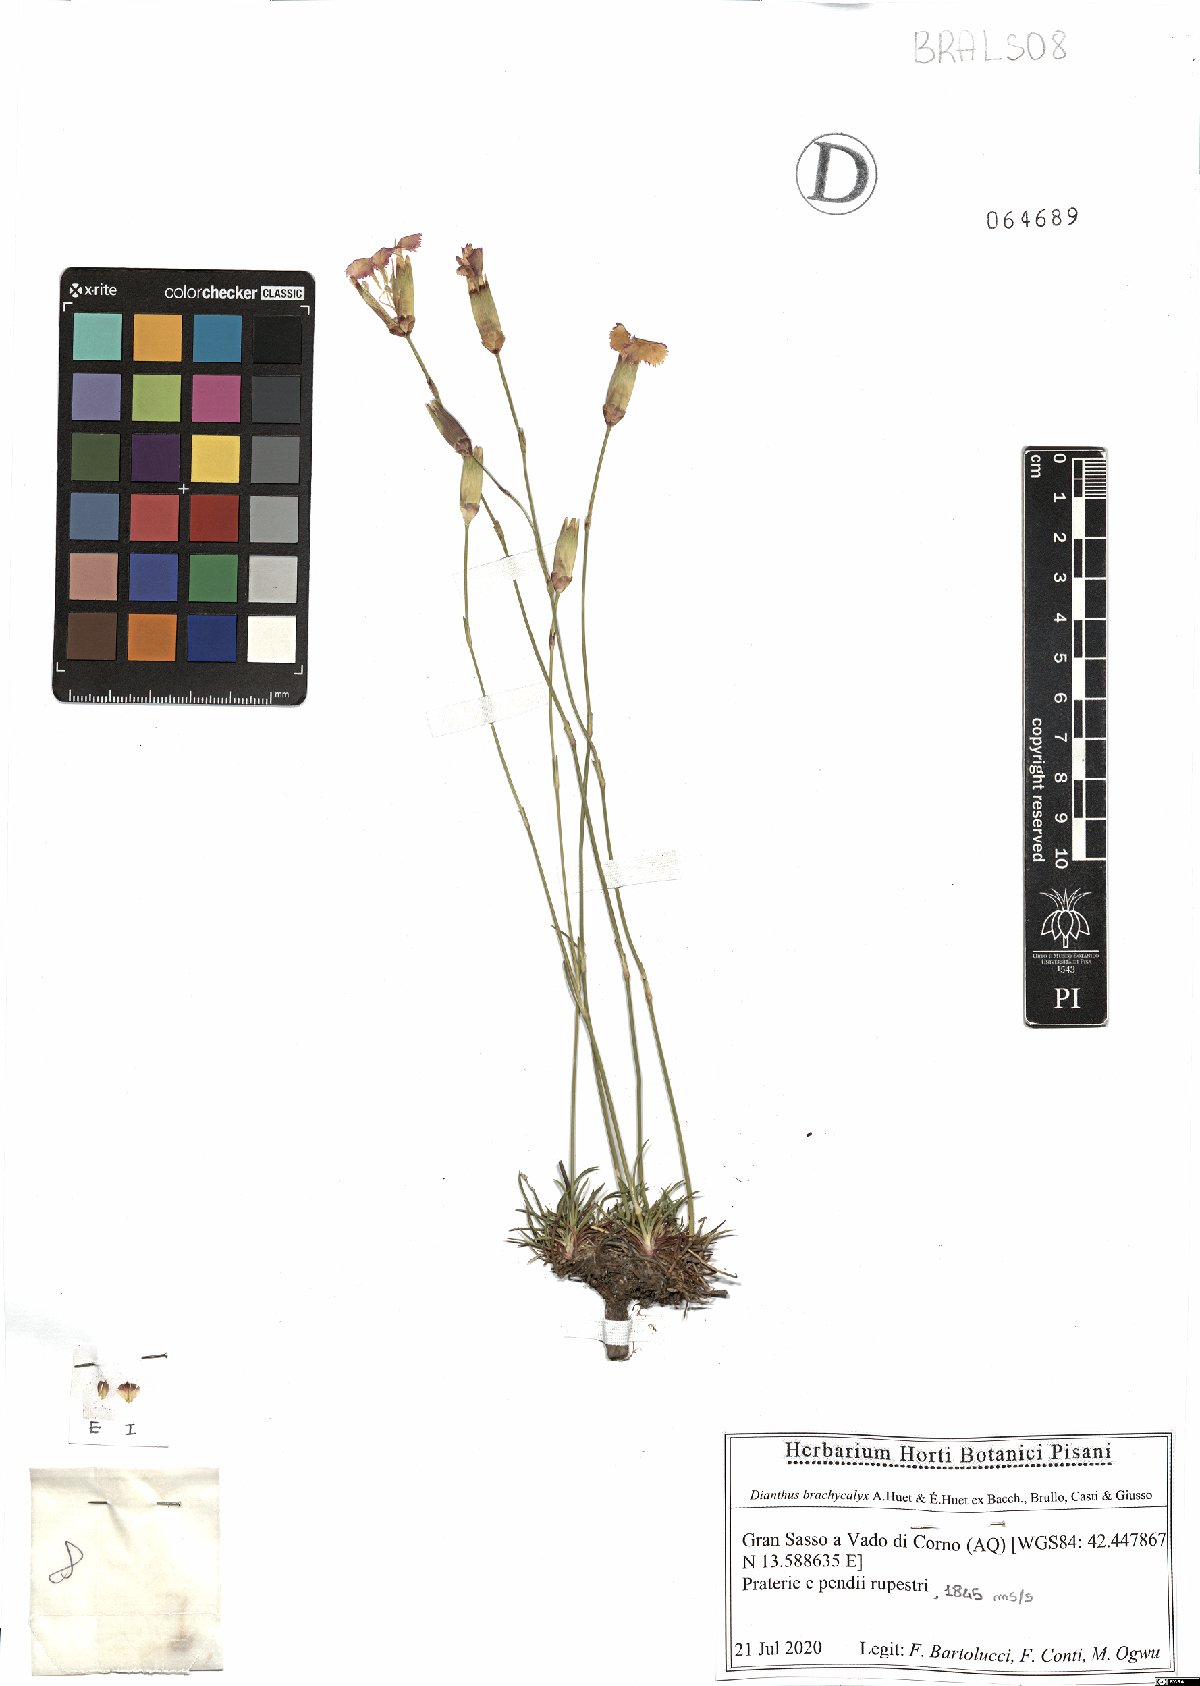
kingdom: Plantae
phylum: Tracheophyta
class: Magnoliopsida
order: Caryophyllales
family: Caryophyllaceae
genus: Dianthus
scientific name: Dianthus brachycalyx
